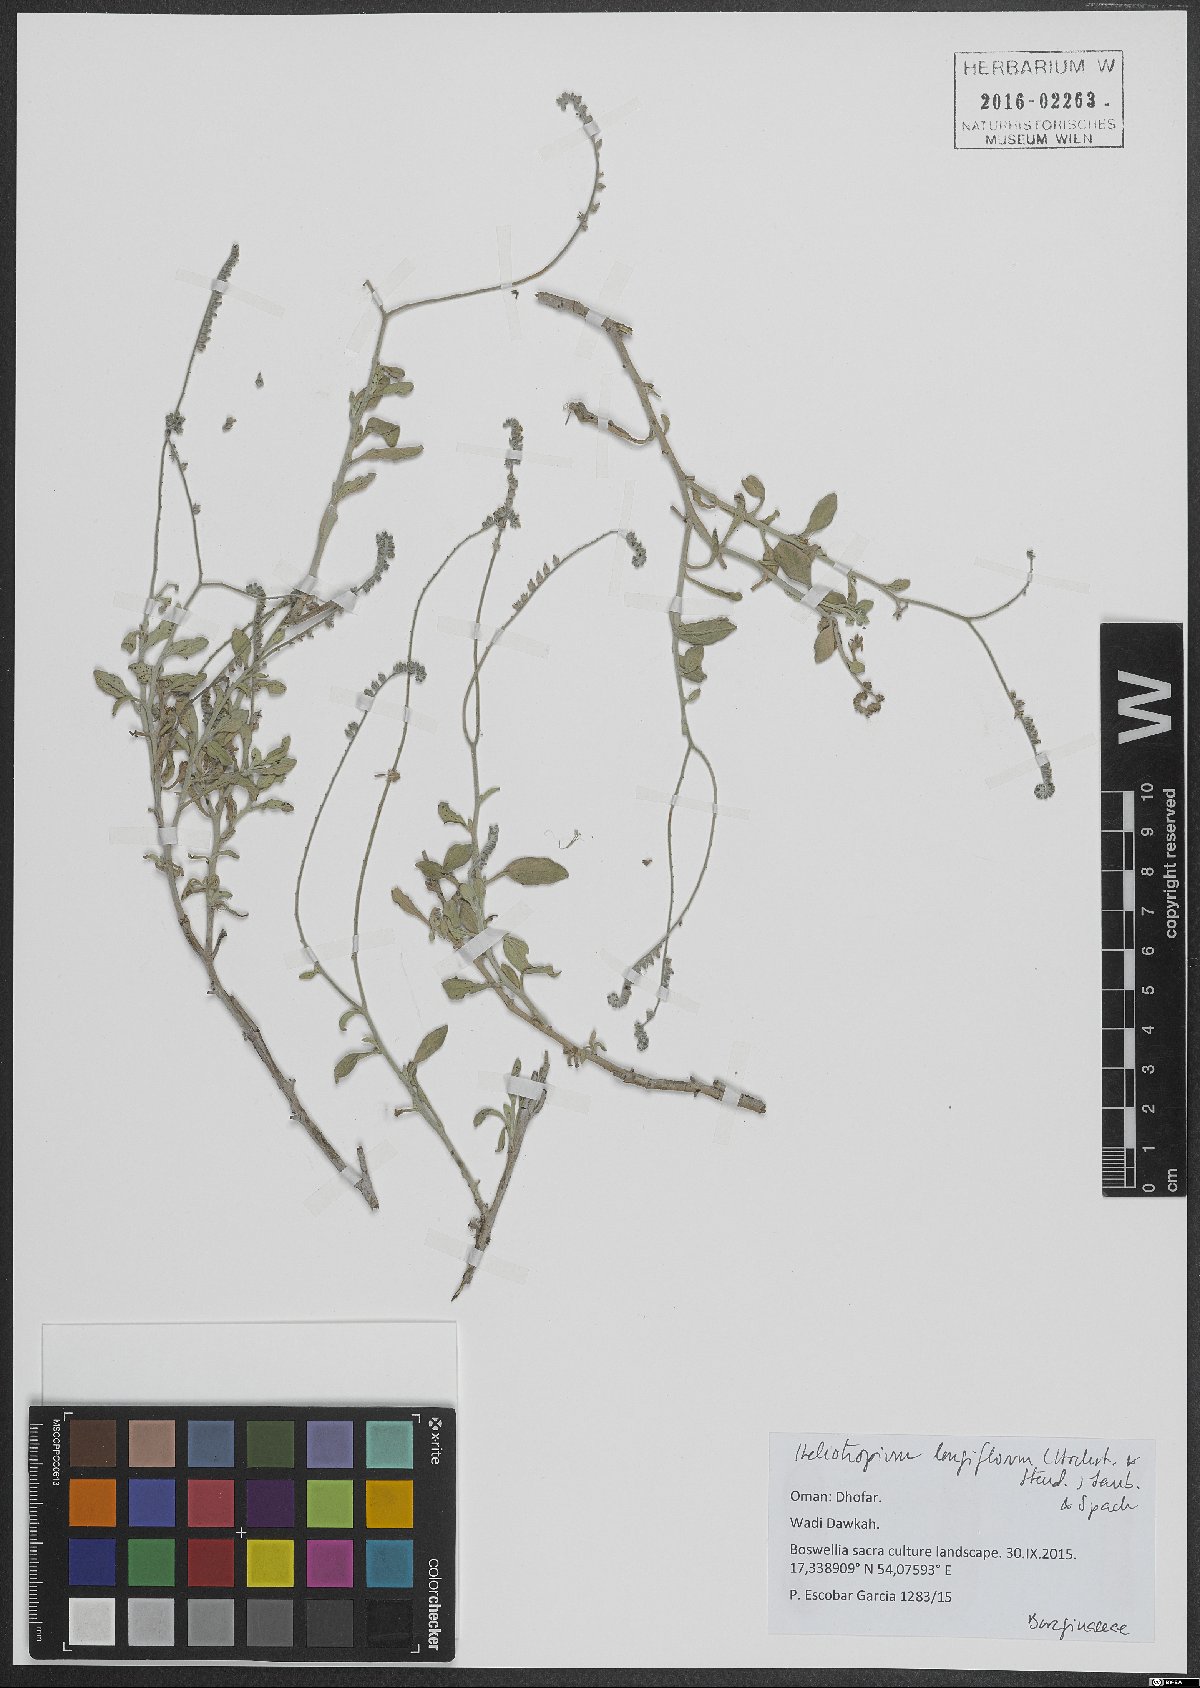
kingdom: Plantae
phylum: Tracheophyta
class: Magnoliopsida
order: Boraginales
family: Heliotropiaceae
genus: Heliotropium
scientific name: Heliotropium longiflorum
